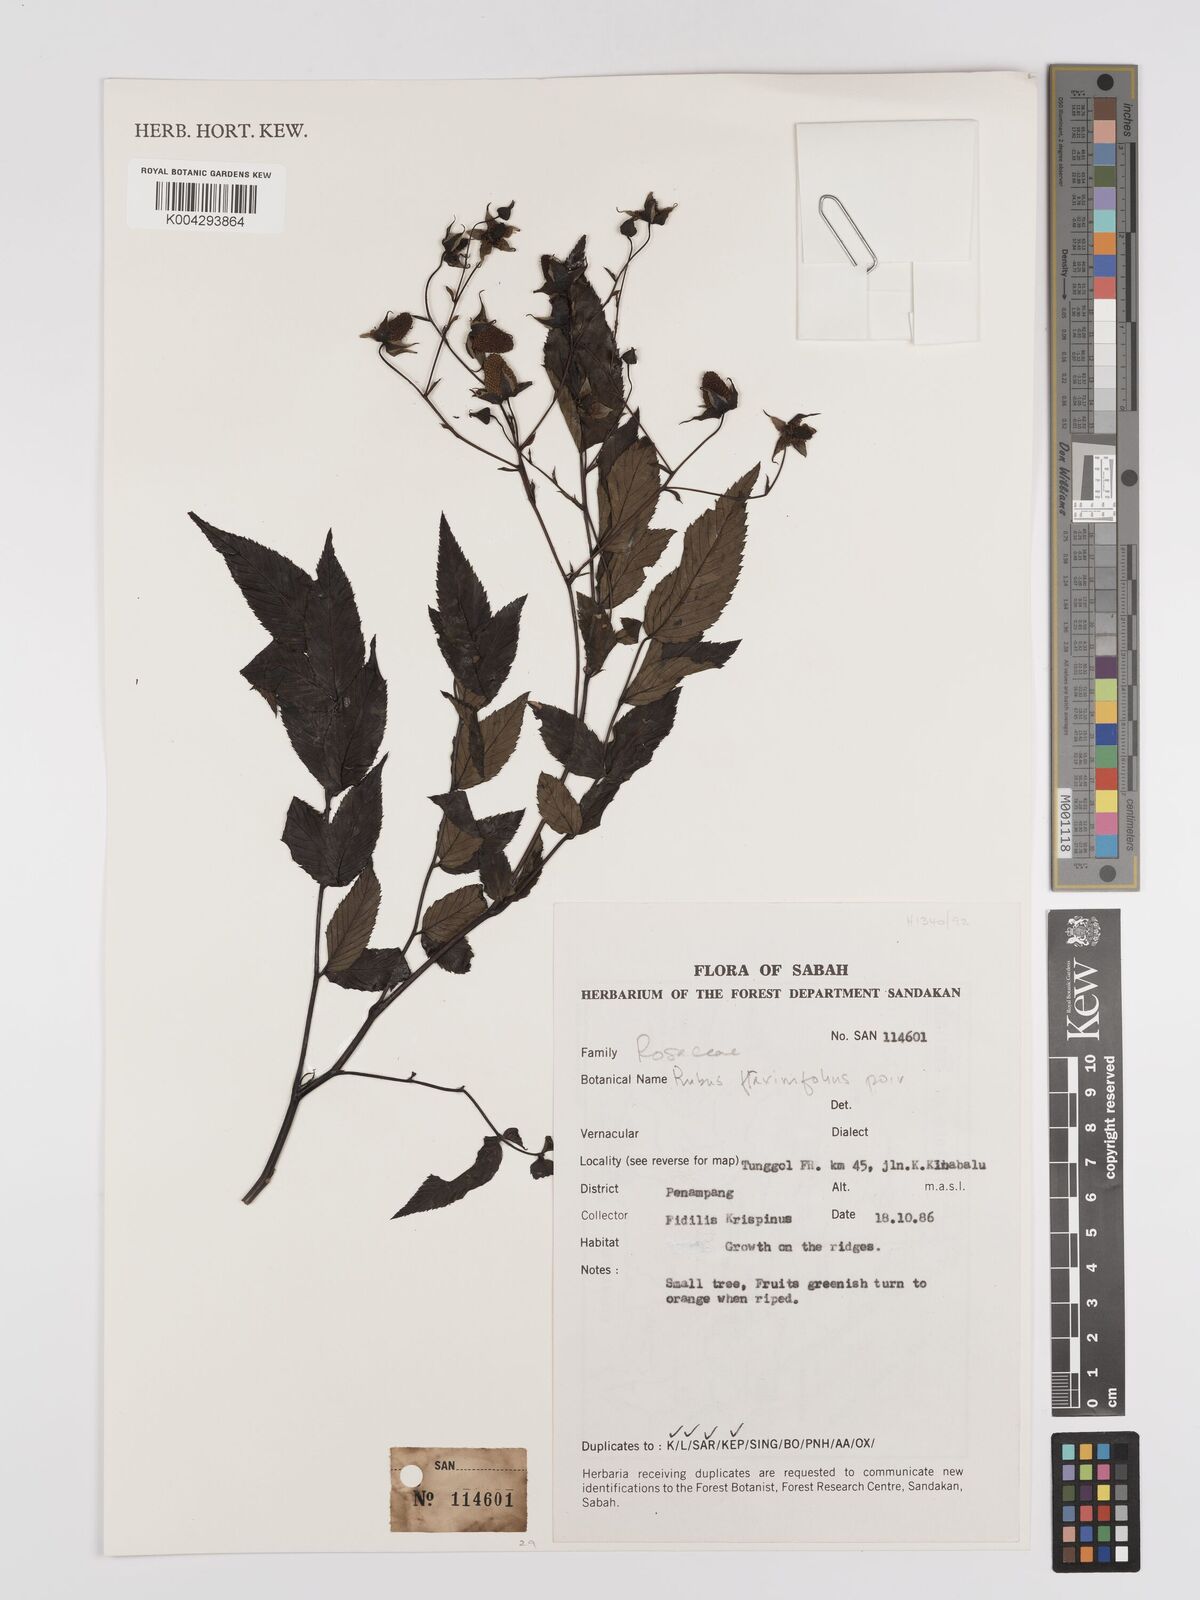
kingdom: Plantae
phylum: Tracheophyta
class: Magnoliopsida
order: Rosales
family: Rosaceae
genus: Rubus
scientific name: Rubus fraxinifolius
